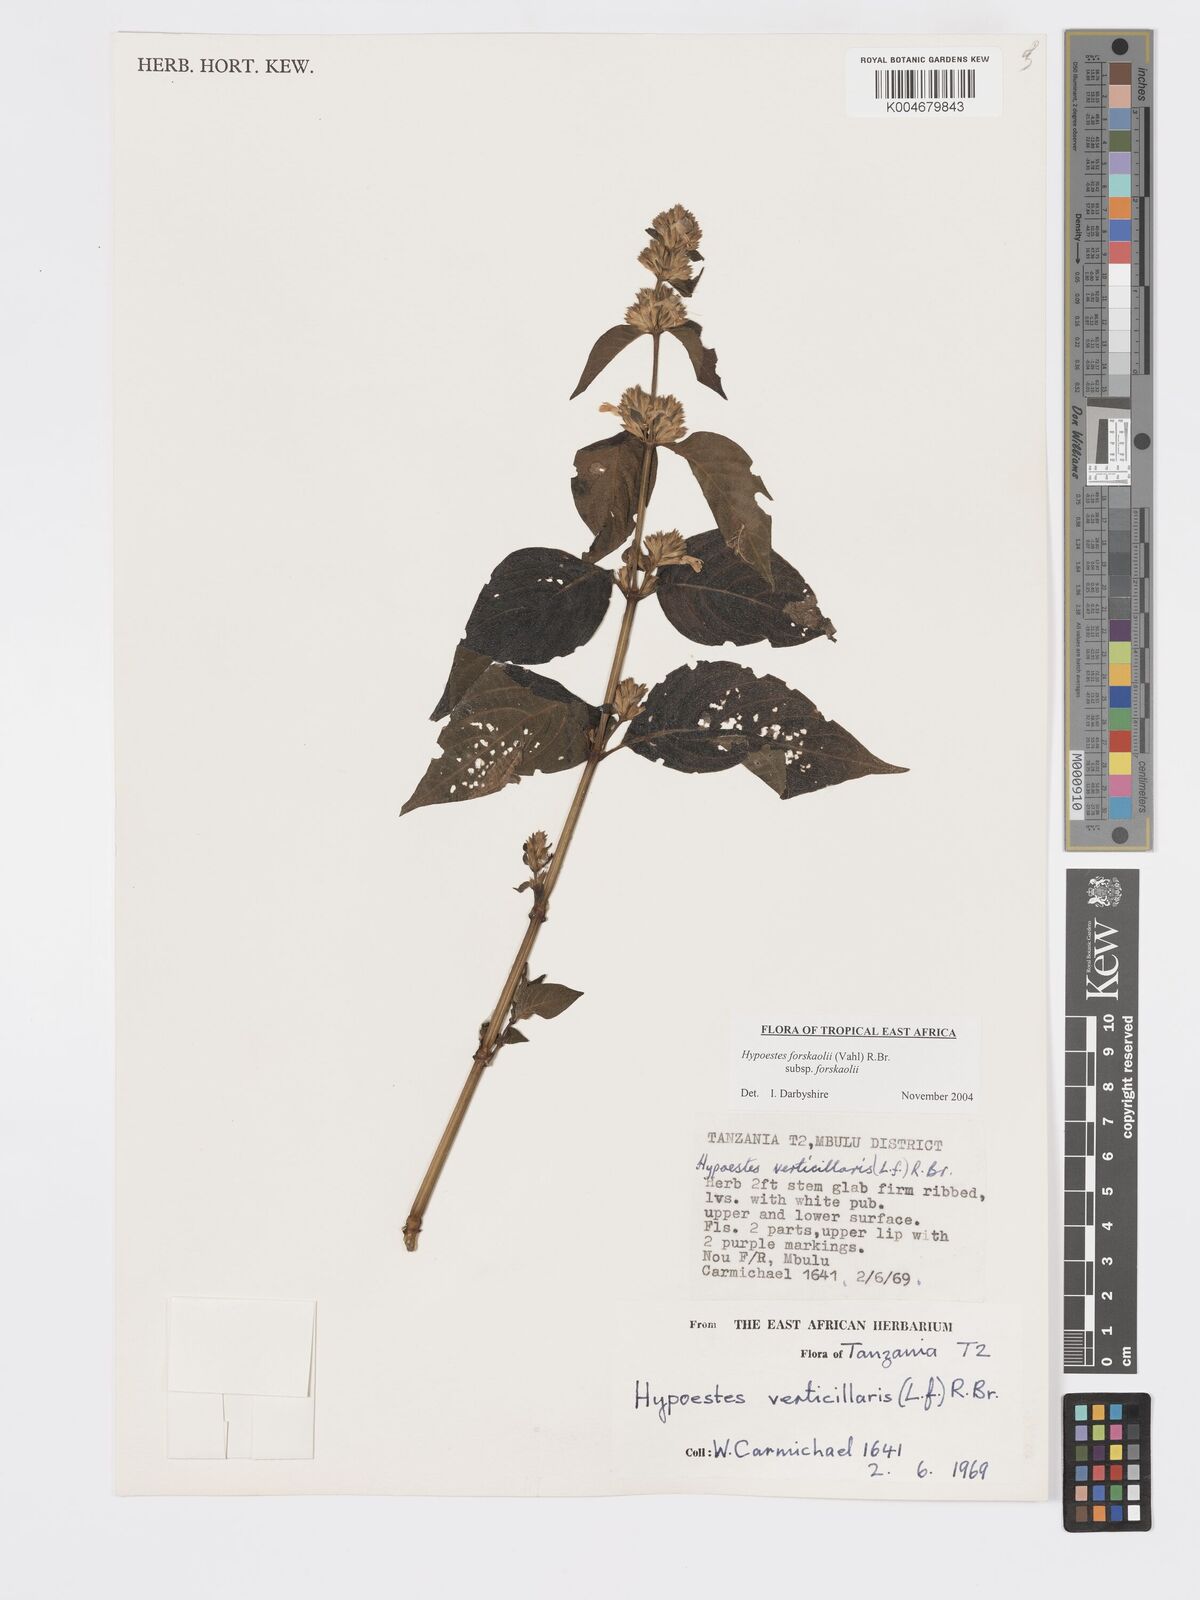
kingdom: Plantae
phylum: Tracheophyta
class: Magnoliopsida
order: Lamiales
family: Acanthaceae
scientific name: Acanthaceae
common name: Acanthaceae
